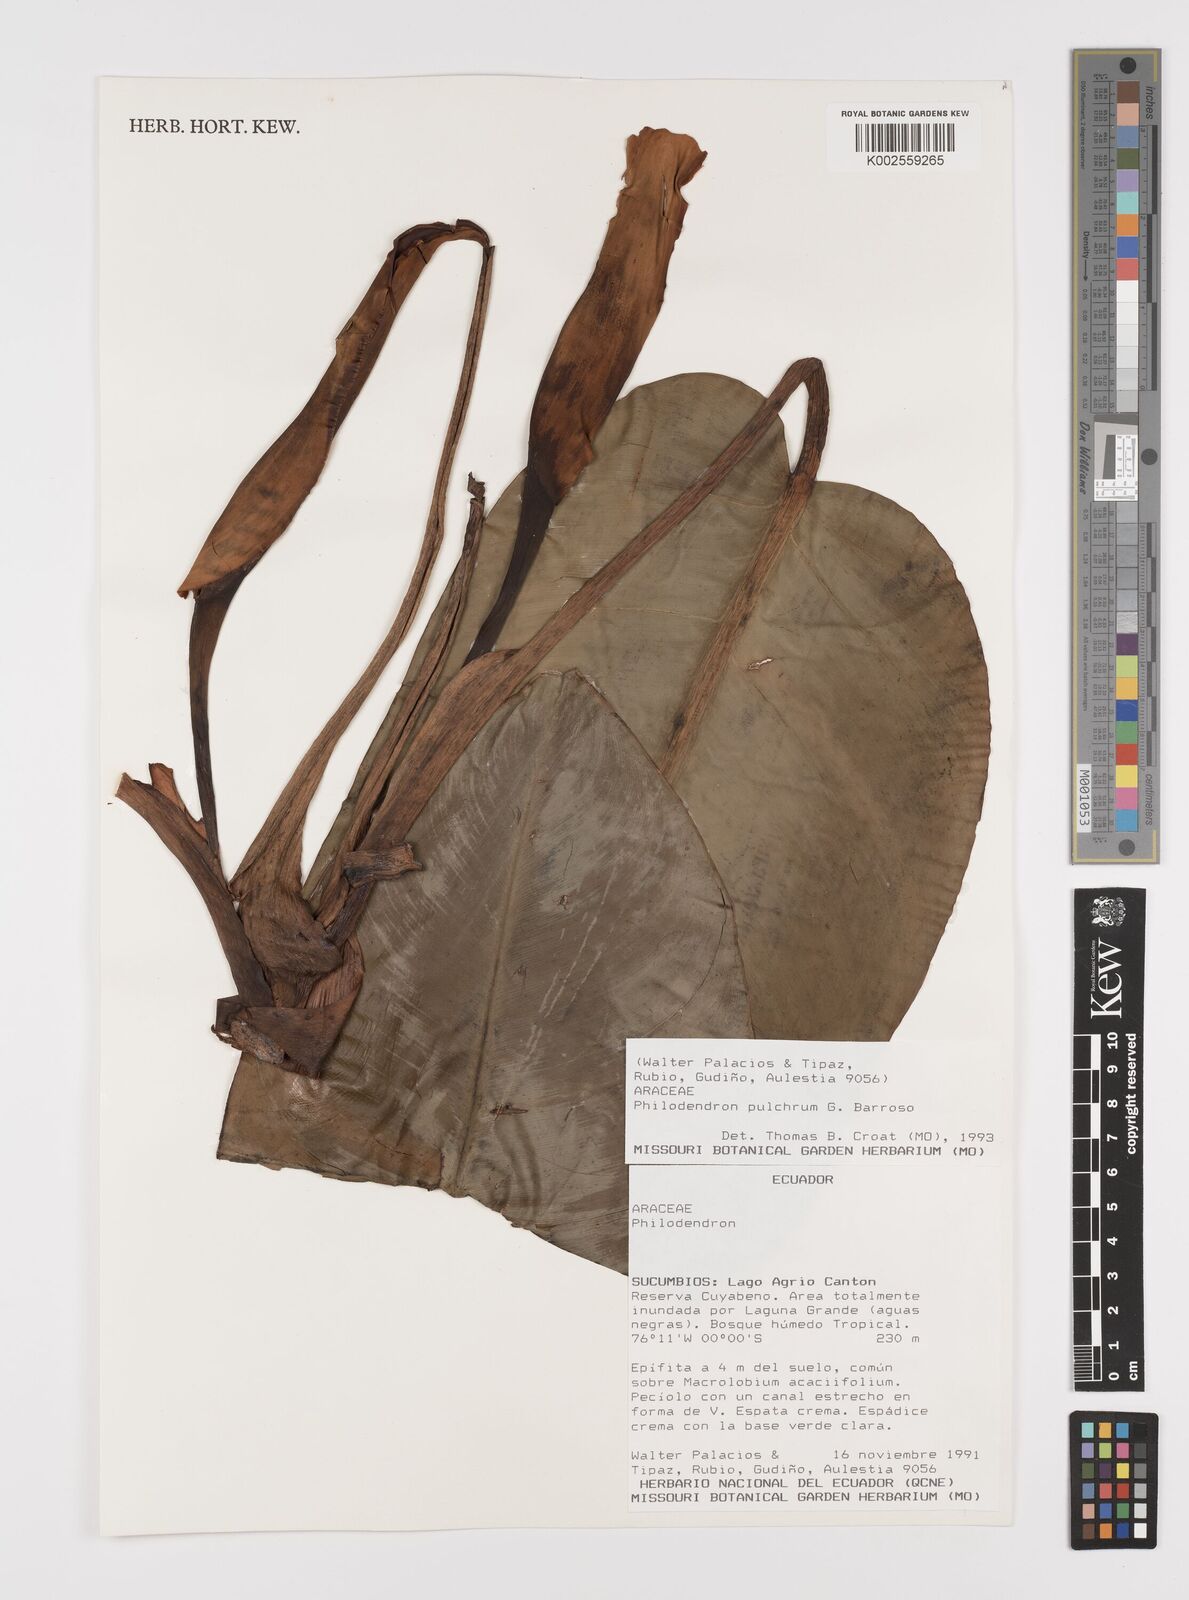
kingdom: Plantae
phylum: Tracheophyta
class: Liliopsida
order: Alismatales
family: Araceae
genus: Philodendron
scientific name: Philodendron pulchrum
